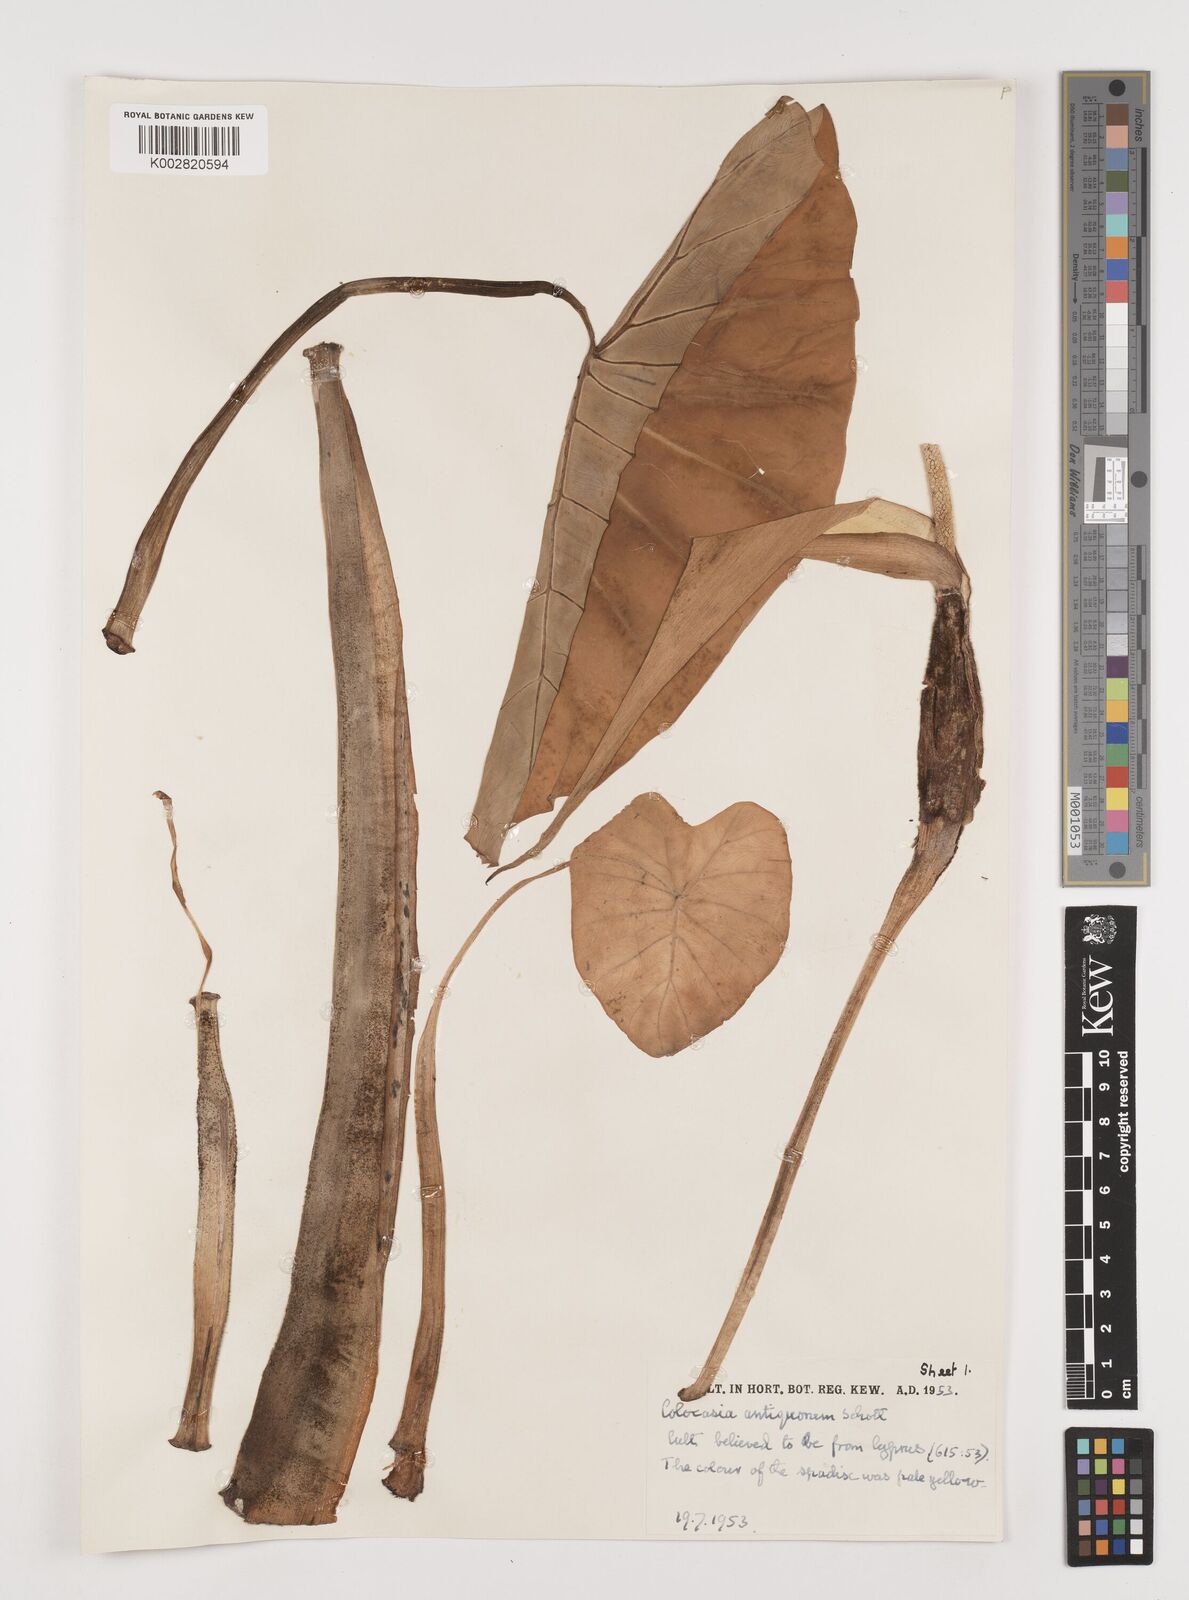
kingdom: Plantae
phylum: Tracheophyta
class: Liliopsida
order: Alismatales
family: Araceae
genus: Colocasia
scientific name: Colocasia esculenta
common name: Taro
